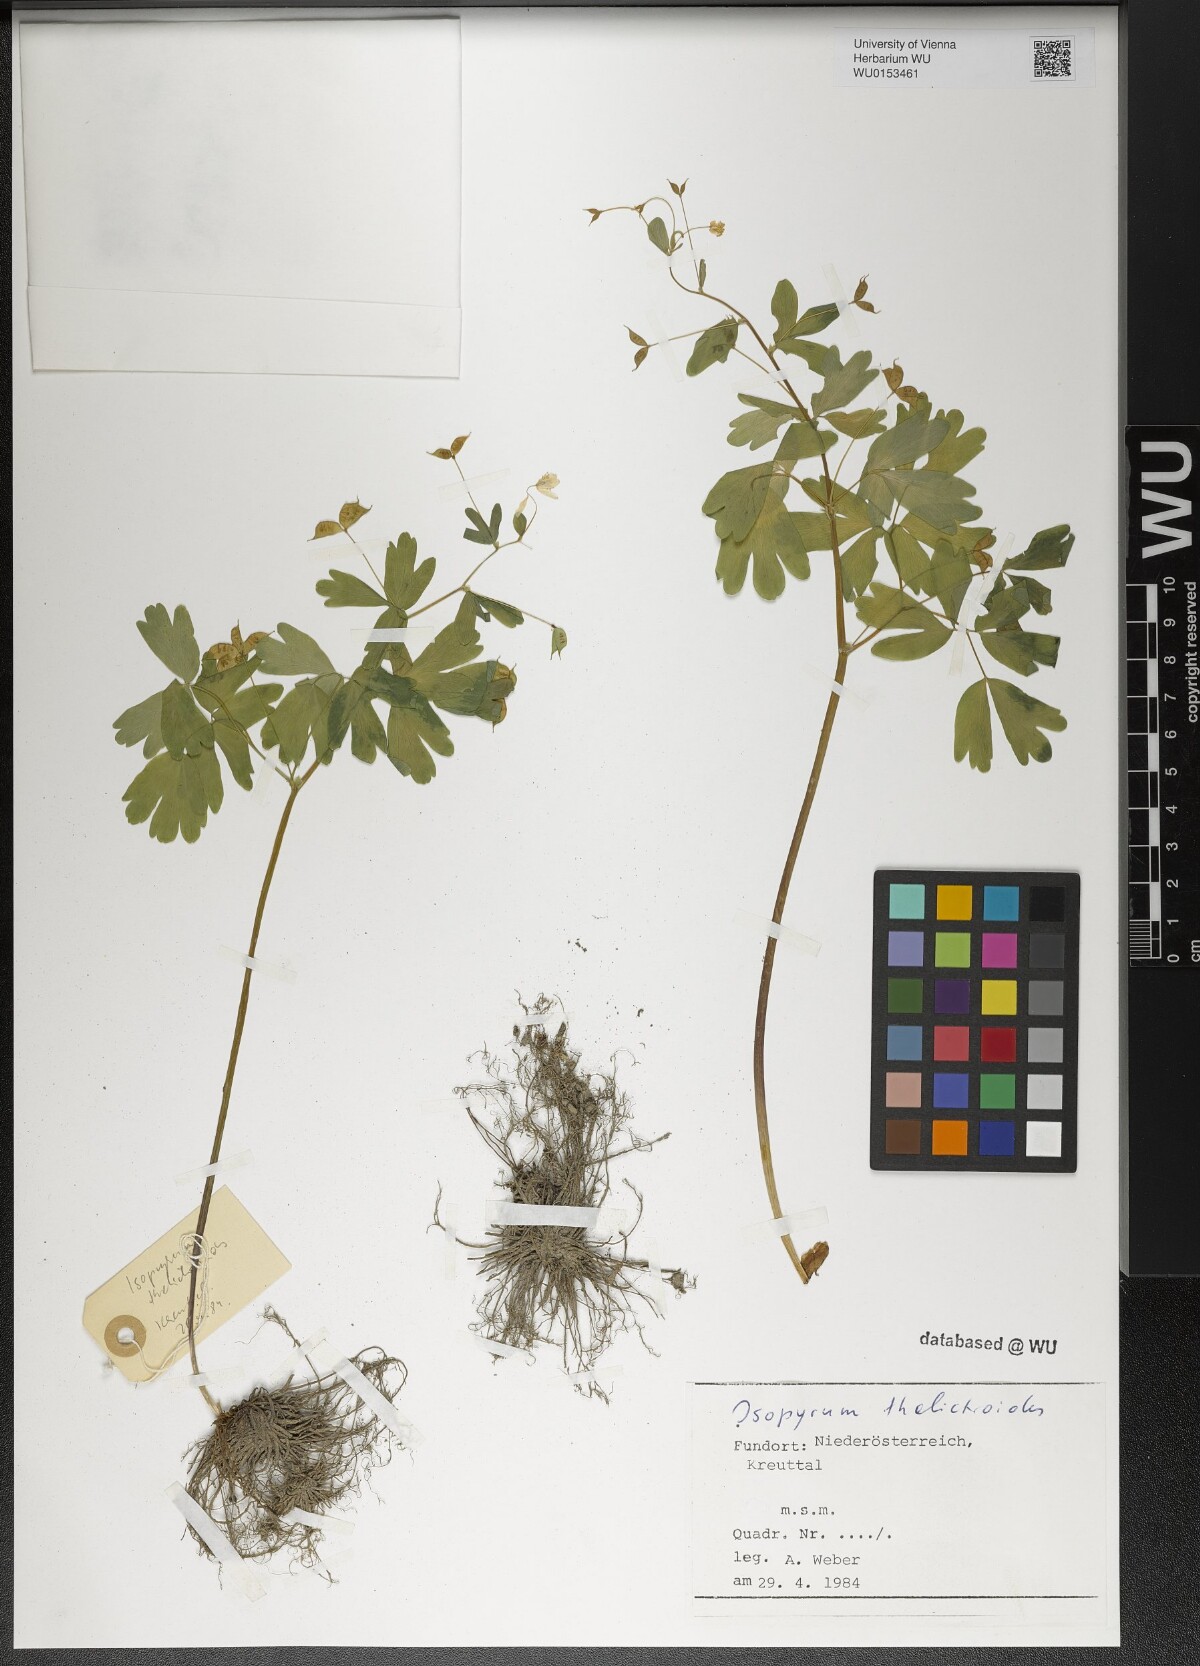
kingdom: Plantae
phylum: Tracheophyta
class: Magnoliopsida
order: Ranunculales
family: Ranunculaceae
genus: Isopyrum
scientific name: Isopyrum thalictroides
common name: Isopyrum
